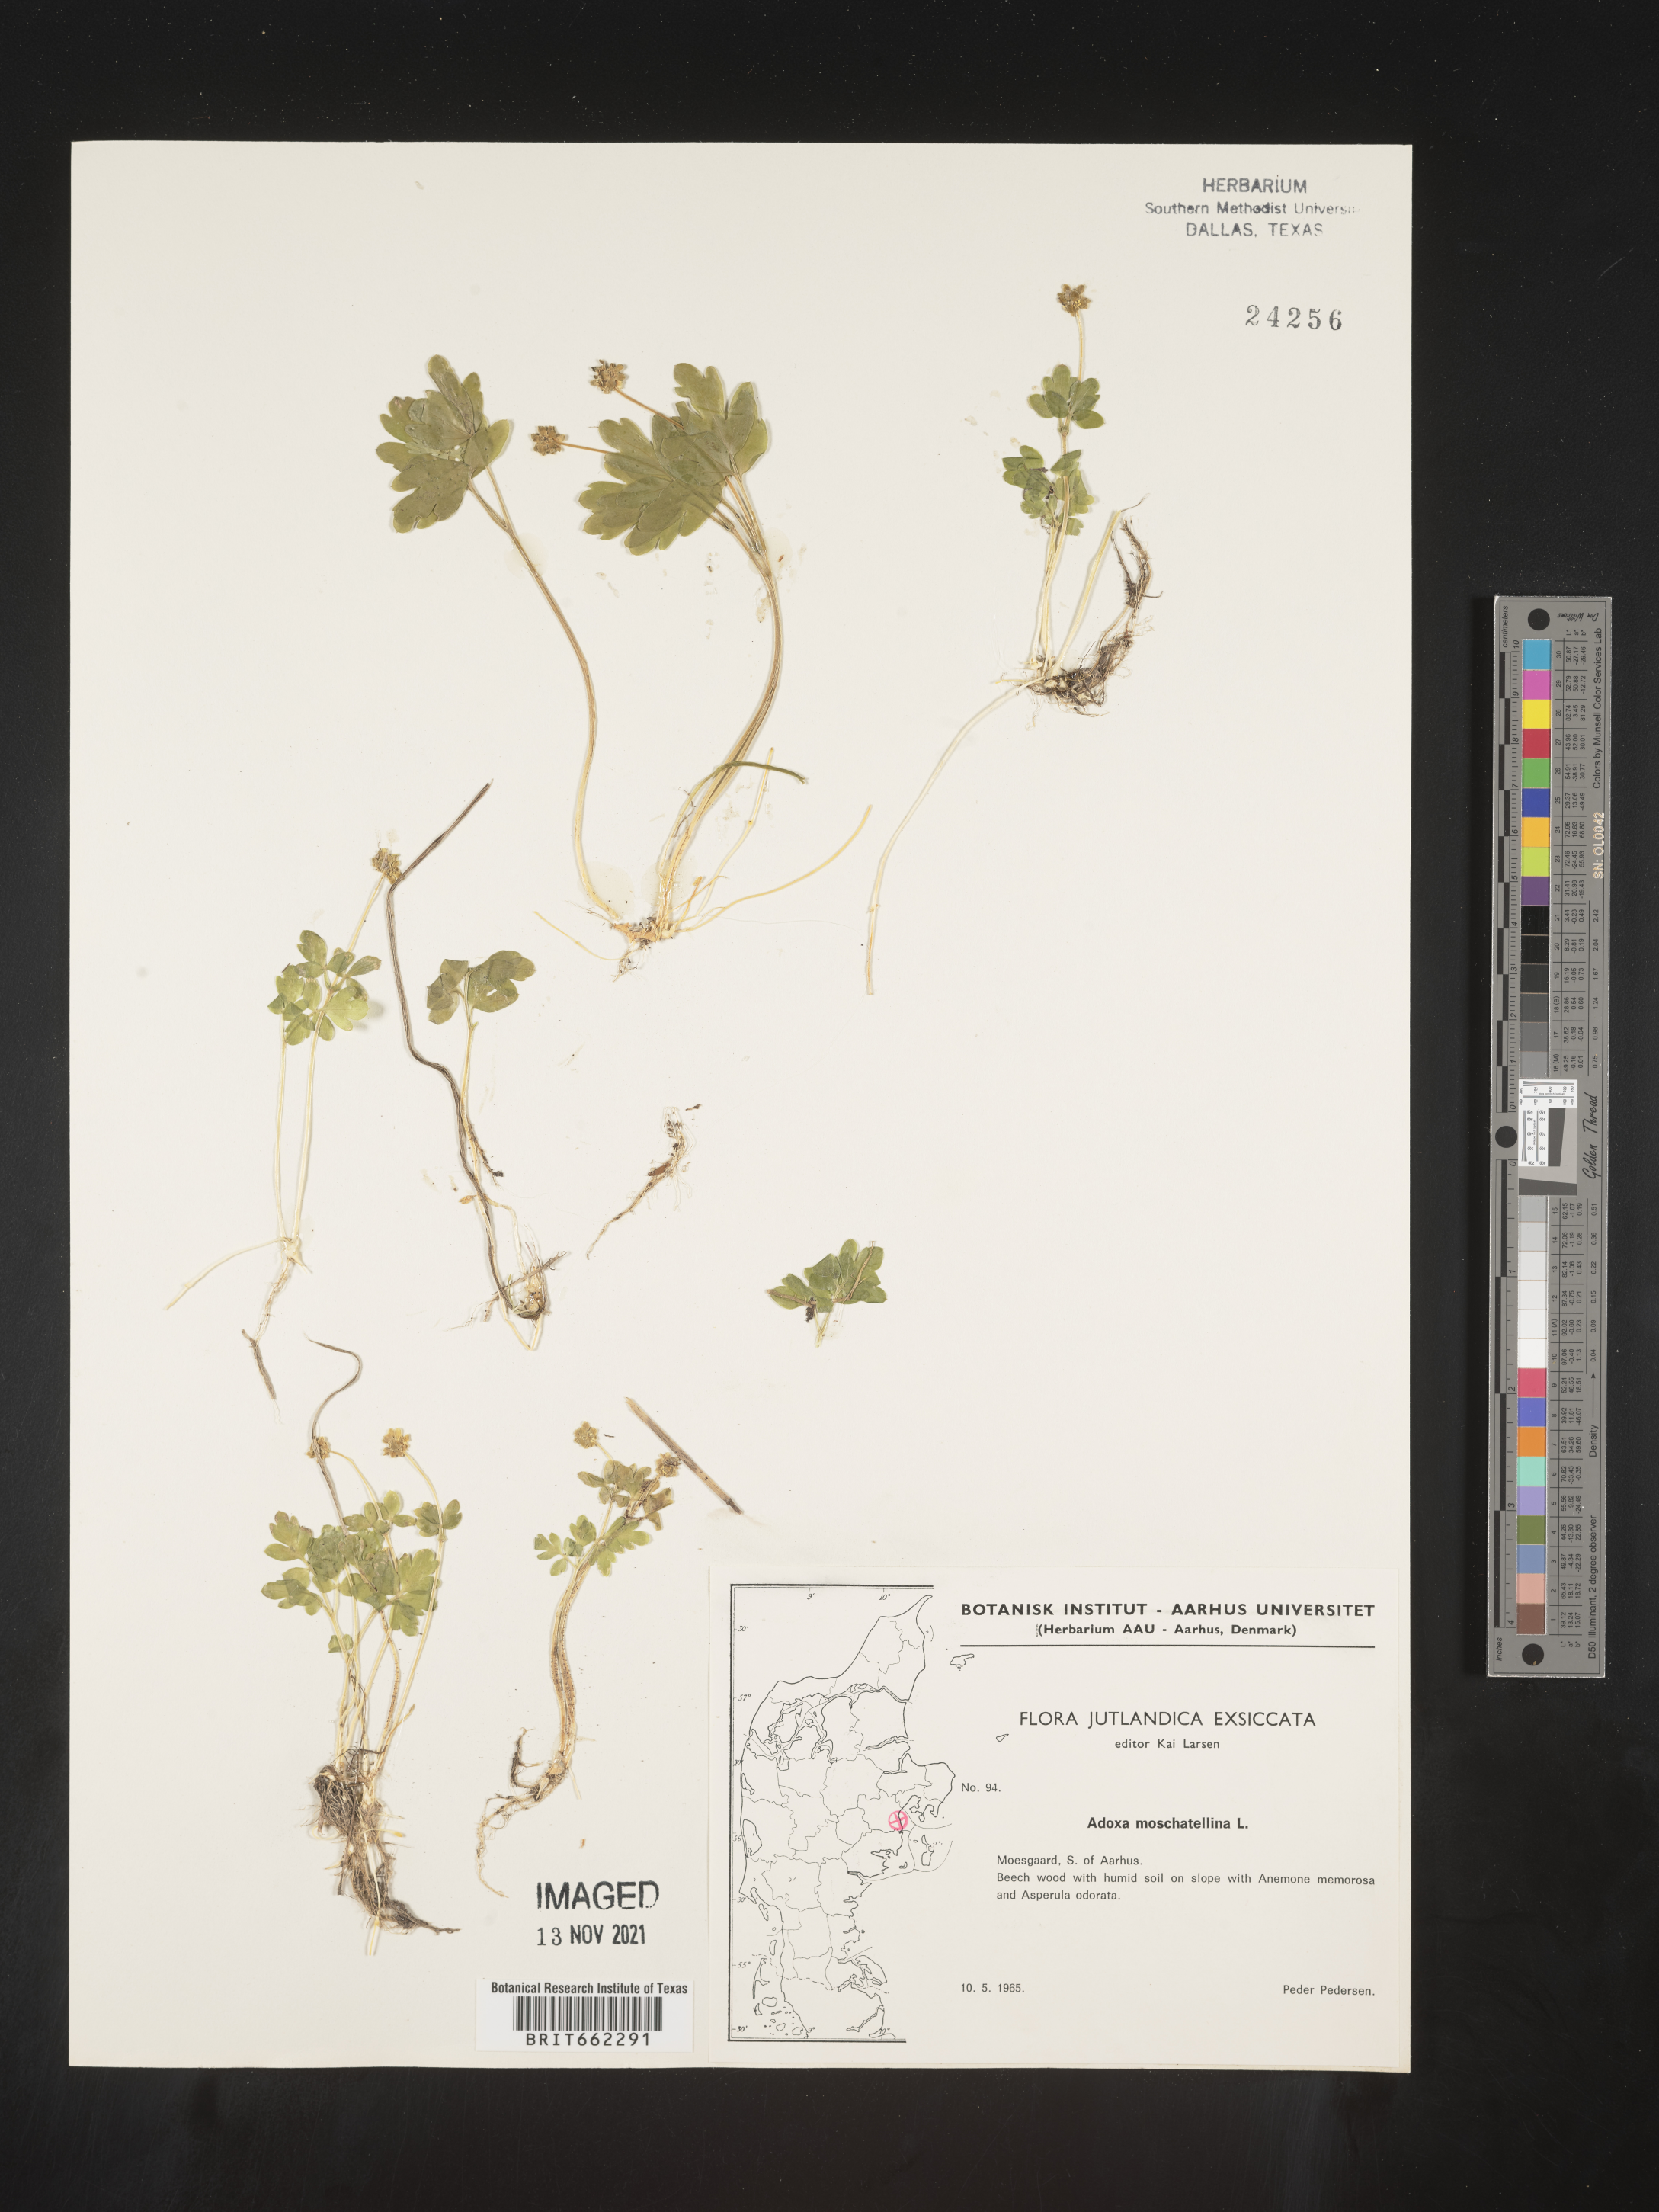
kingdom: Plantae
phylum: Tracheophyta
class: Magnoliopsida
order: Dipsacales
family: Viburnaceae
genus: Adoxa
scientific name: Adoxa
